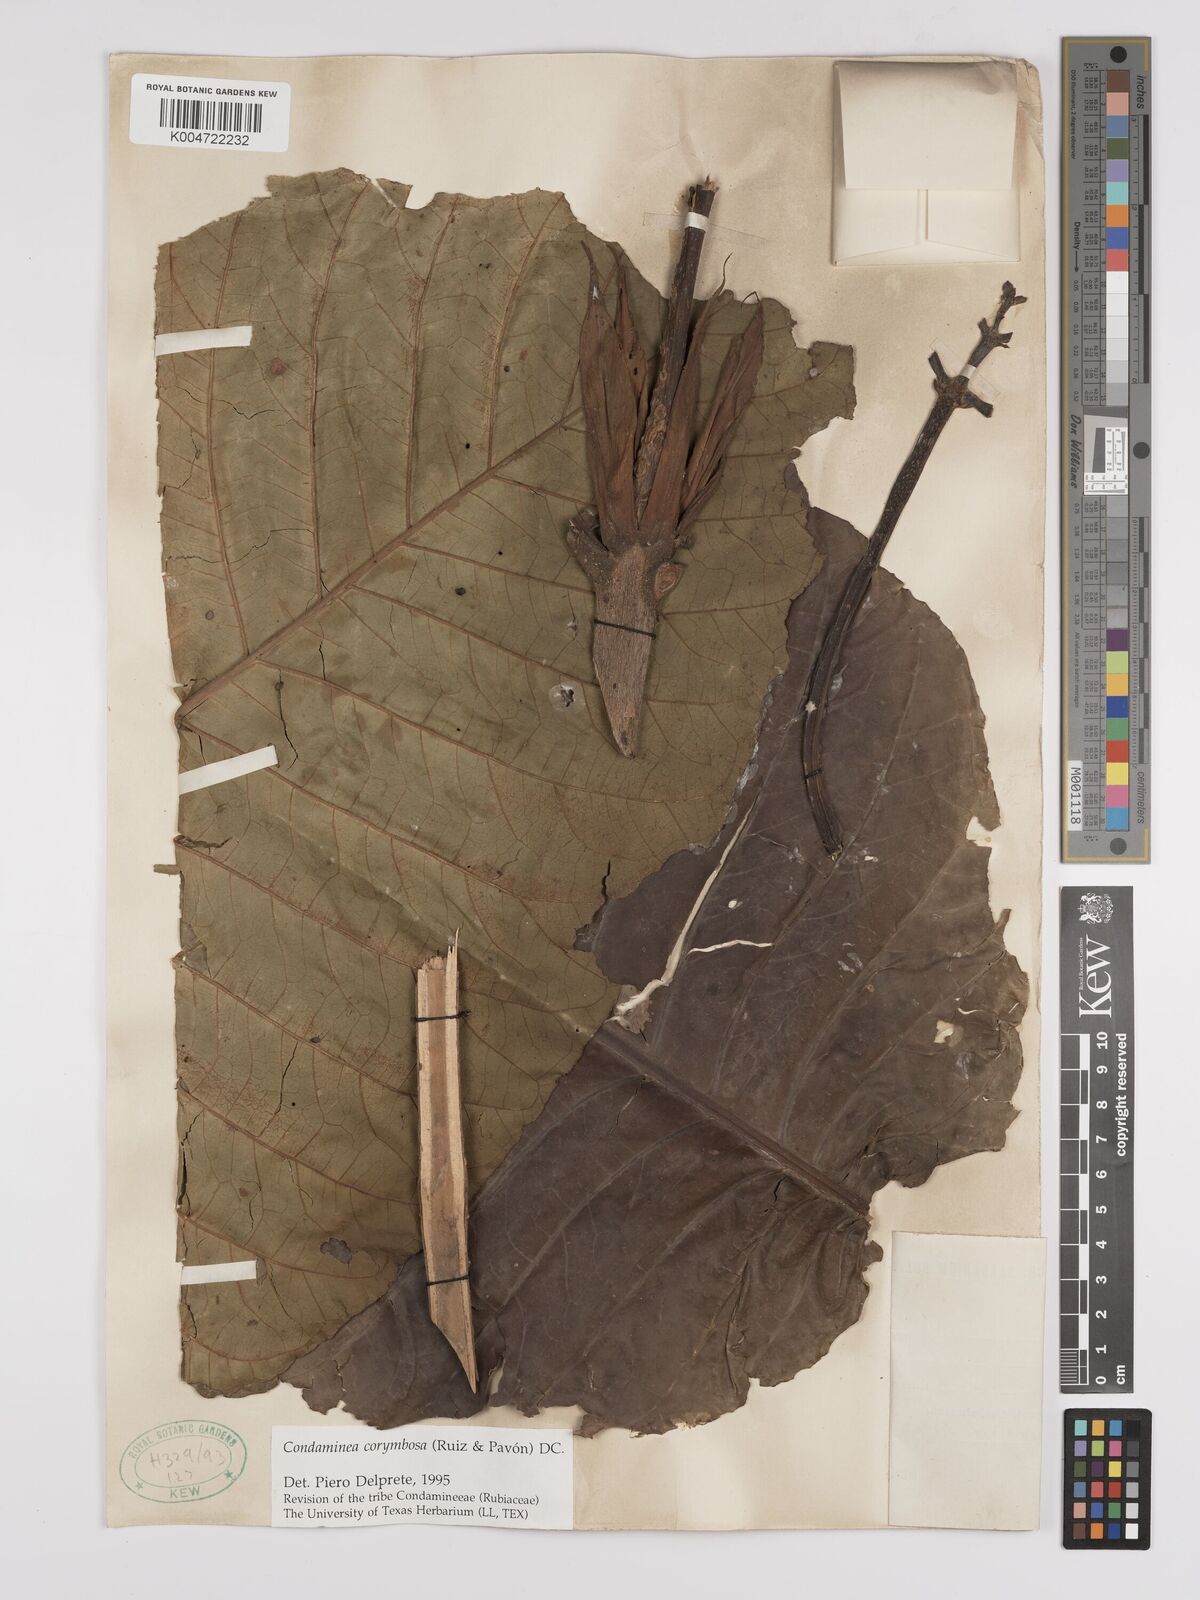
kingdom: Plantae
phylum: Tracheophyta
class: Magnoliopsida
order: Gentianales
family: Rubiaceae
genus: Condaminea
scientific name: Condaminea corymbosa
